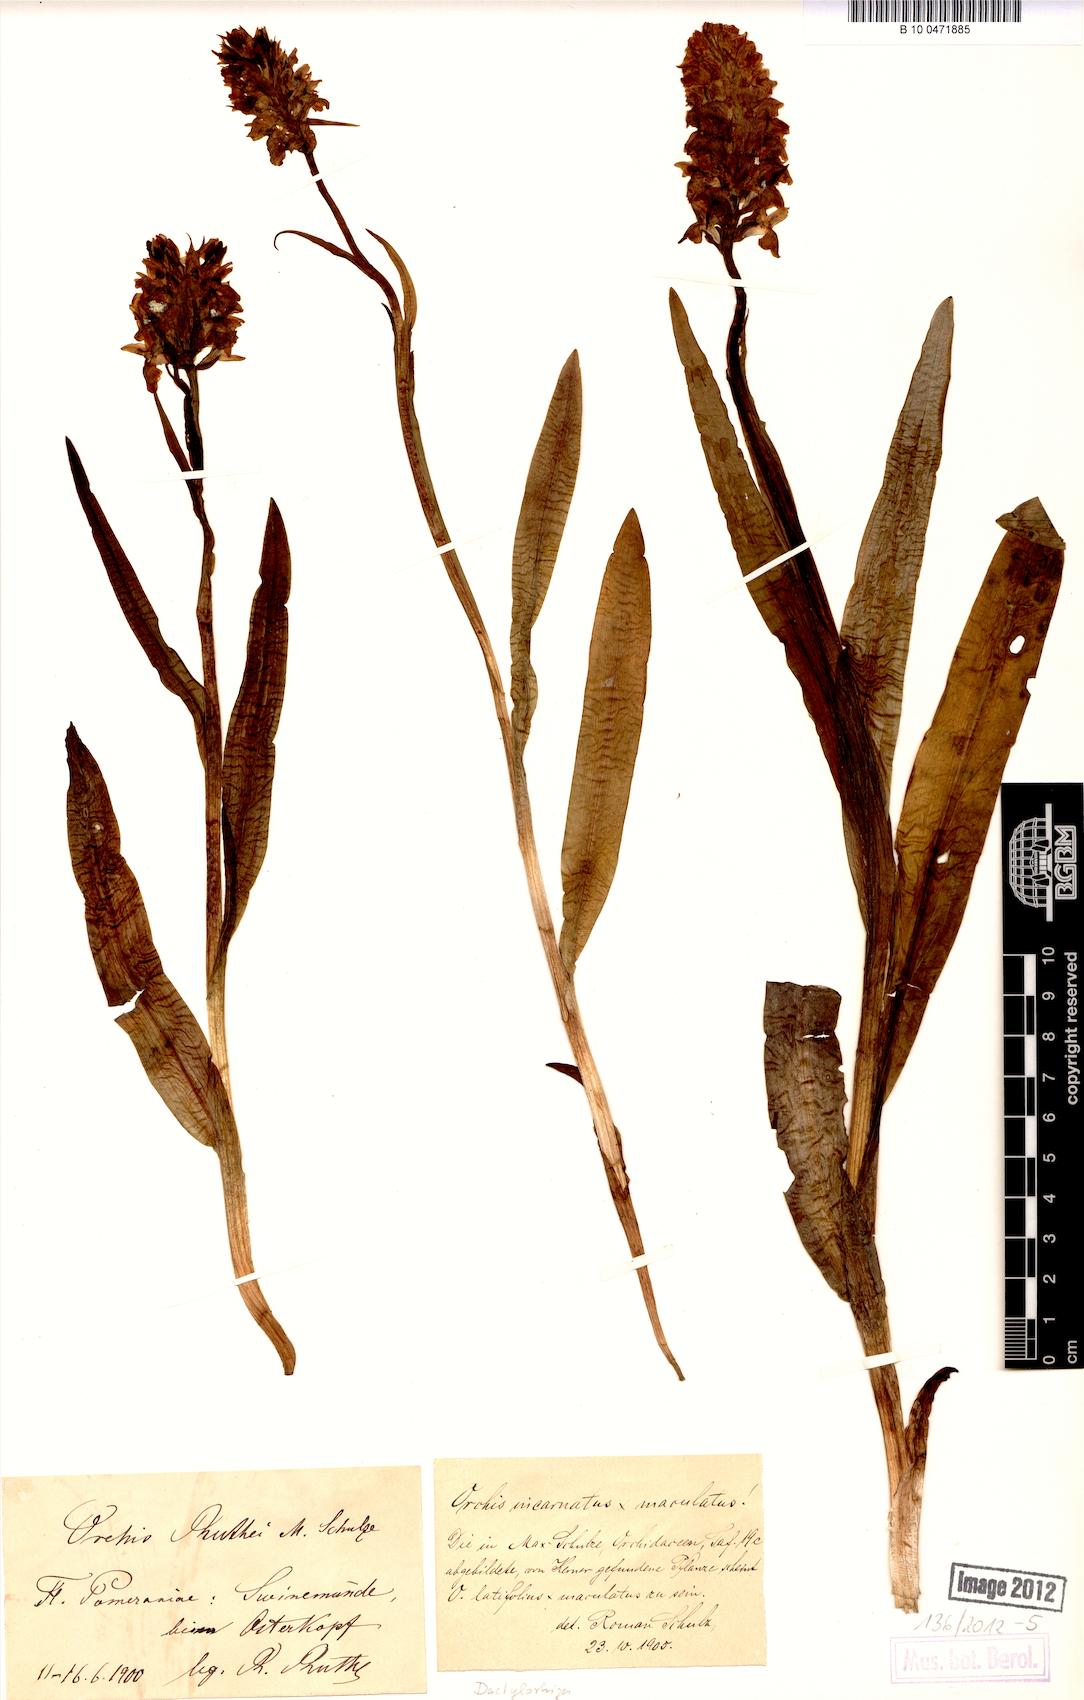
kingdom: Plantae
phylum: Tracheophyta
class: Liliopsida
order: Asparagales
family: Orchidaceae
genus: Dactylorhiza
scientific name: Dactylorhiza kerneriorum
